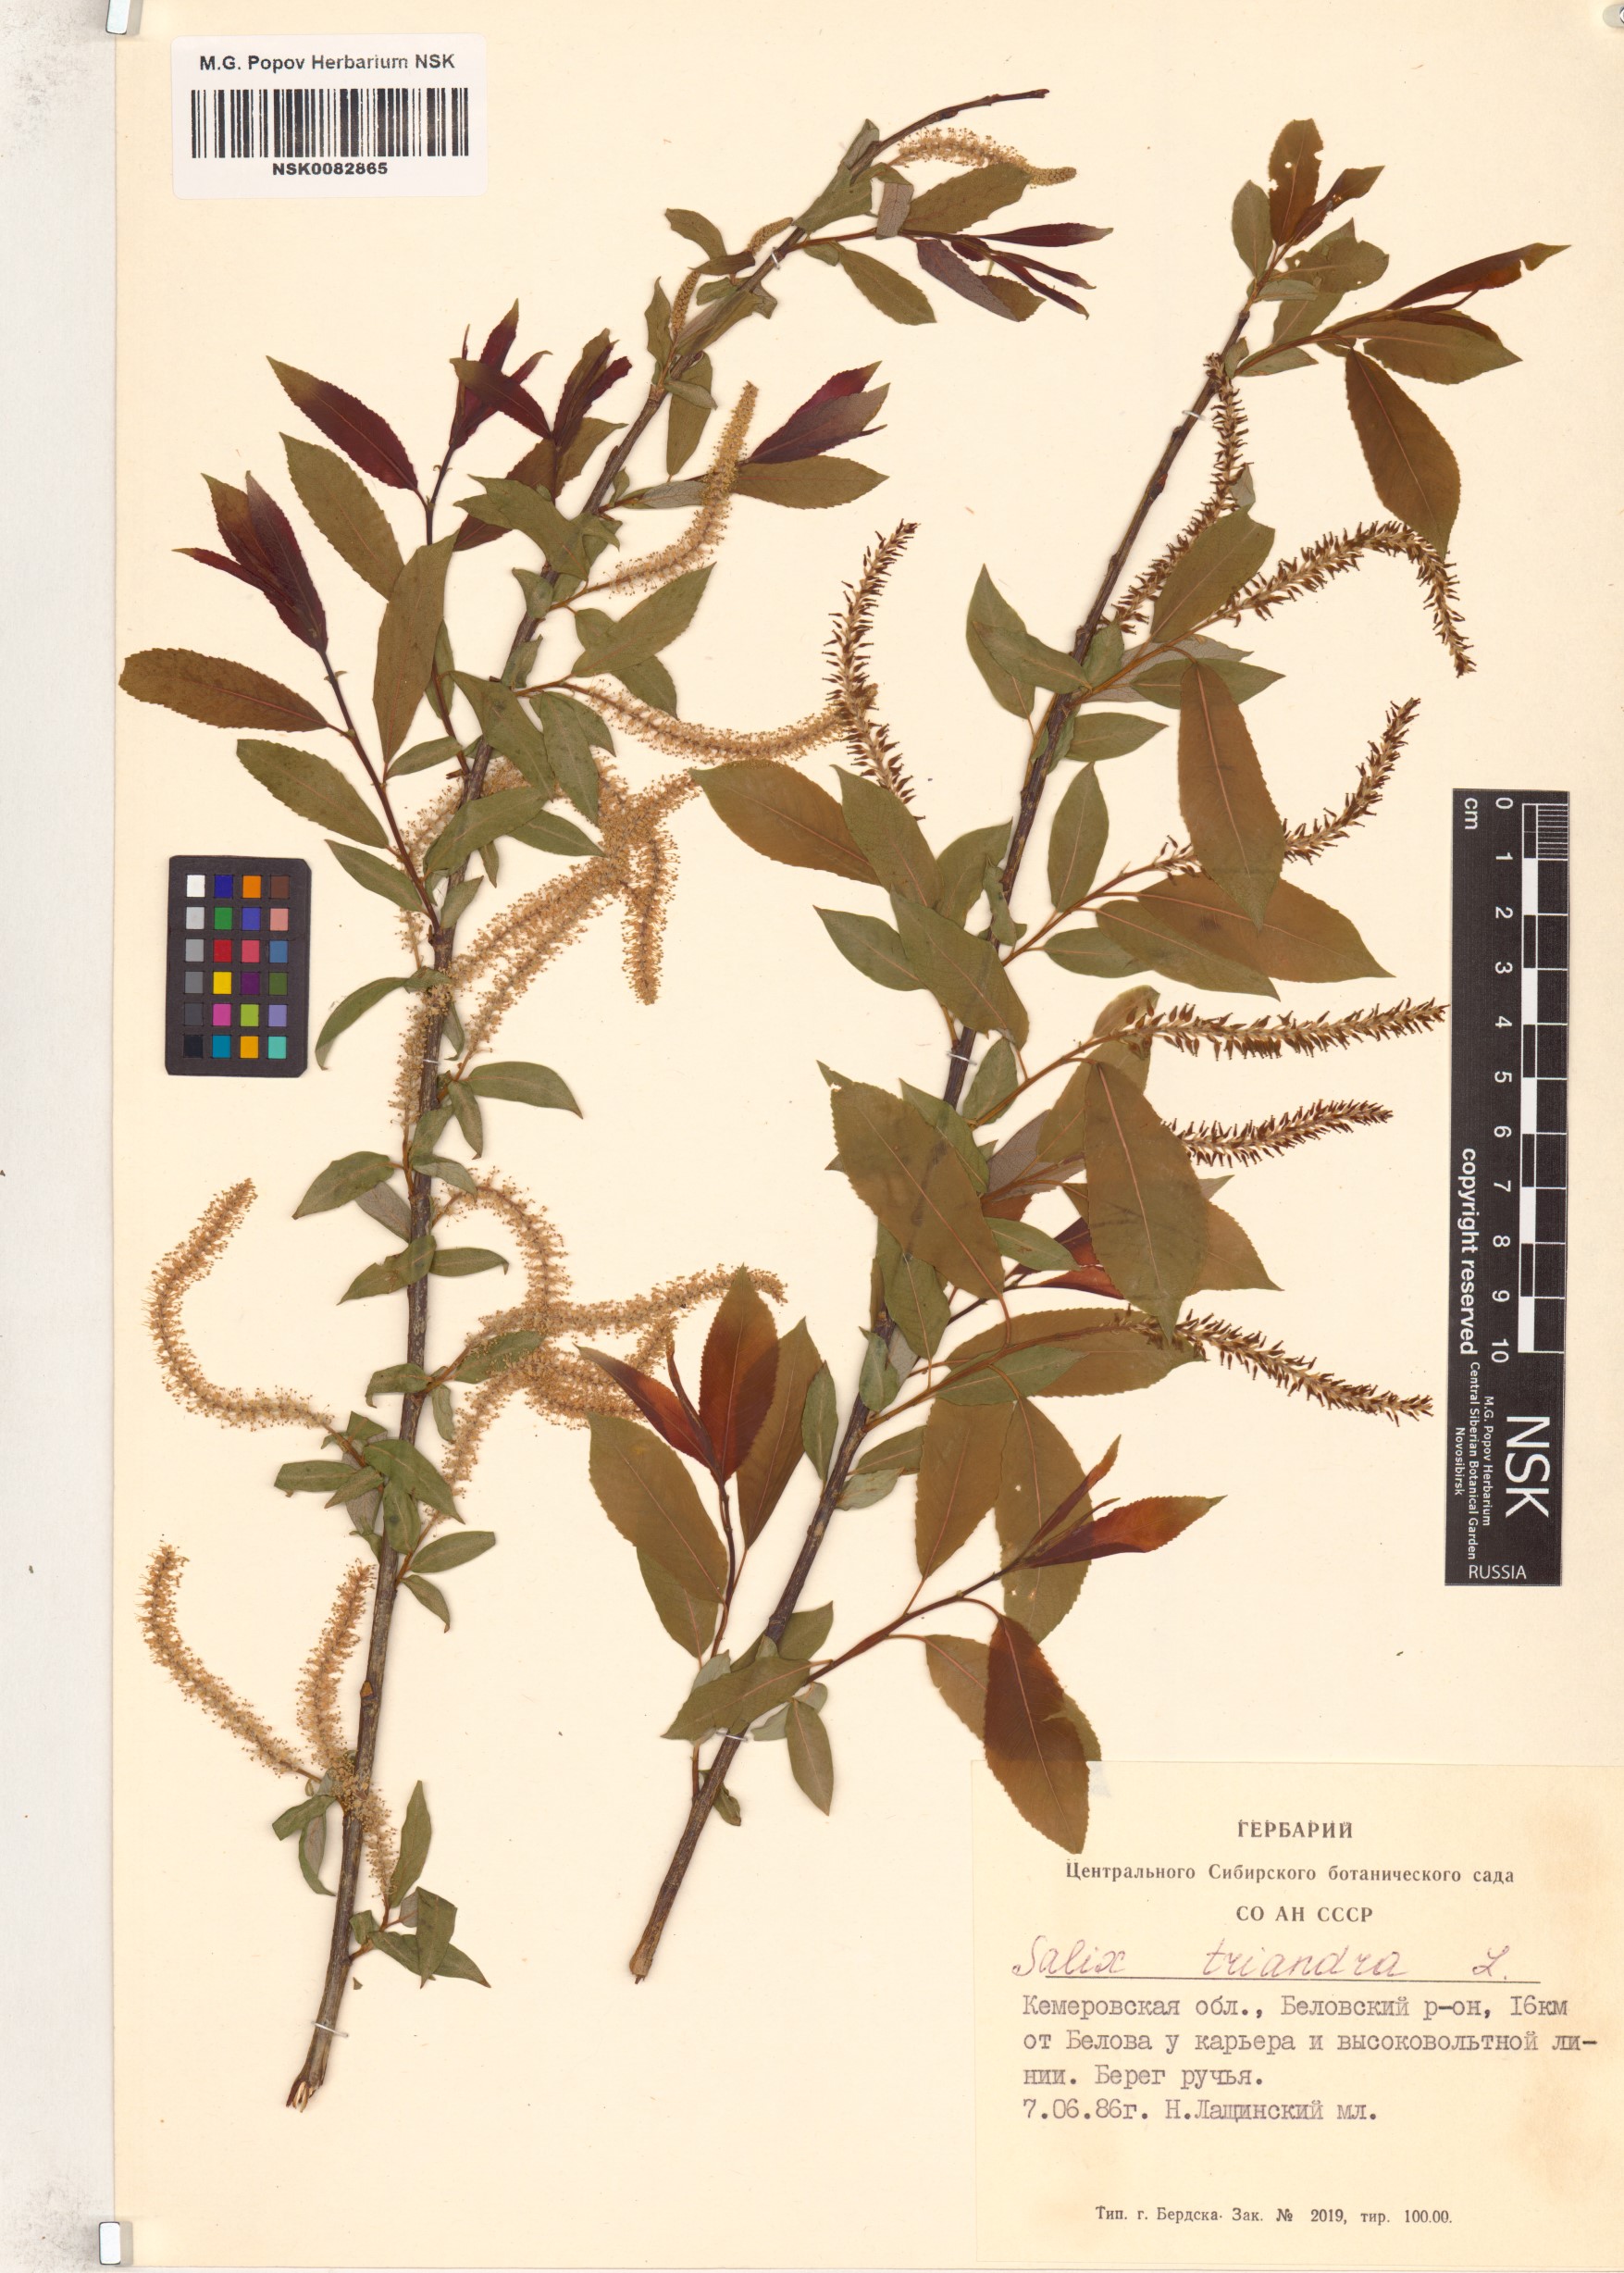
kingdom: Plantae
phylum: Tracheophyta
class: Magnoliopsida
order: Malpighiales
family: Salicaceae
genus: Salix
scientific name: Salix triandra
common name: Almond willow
